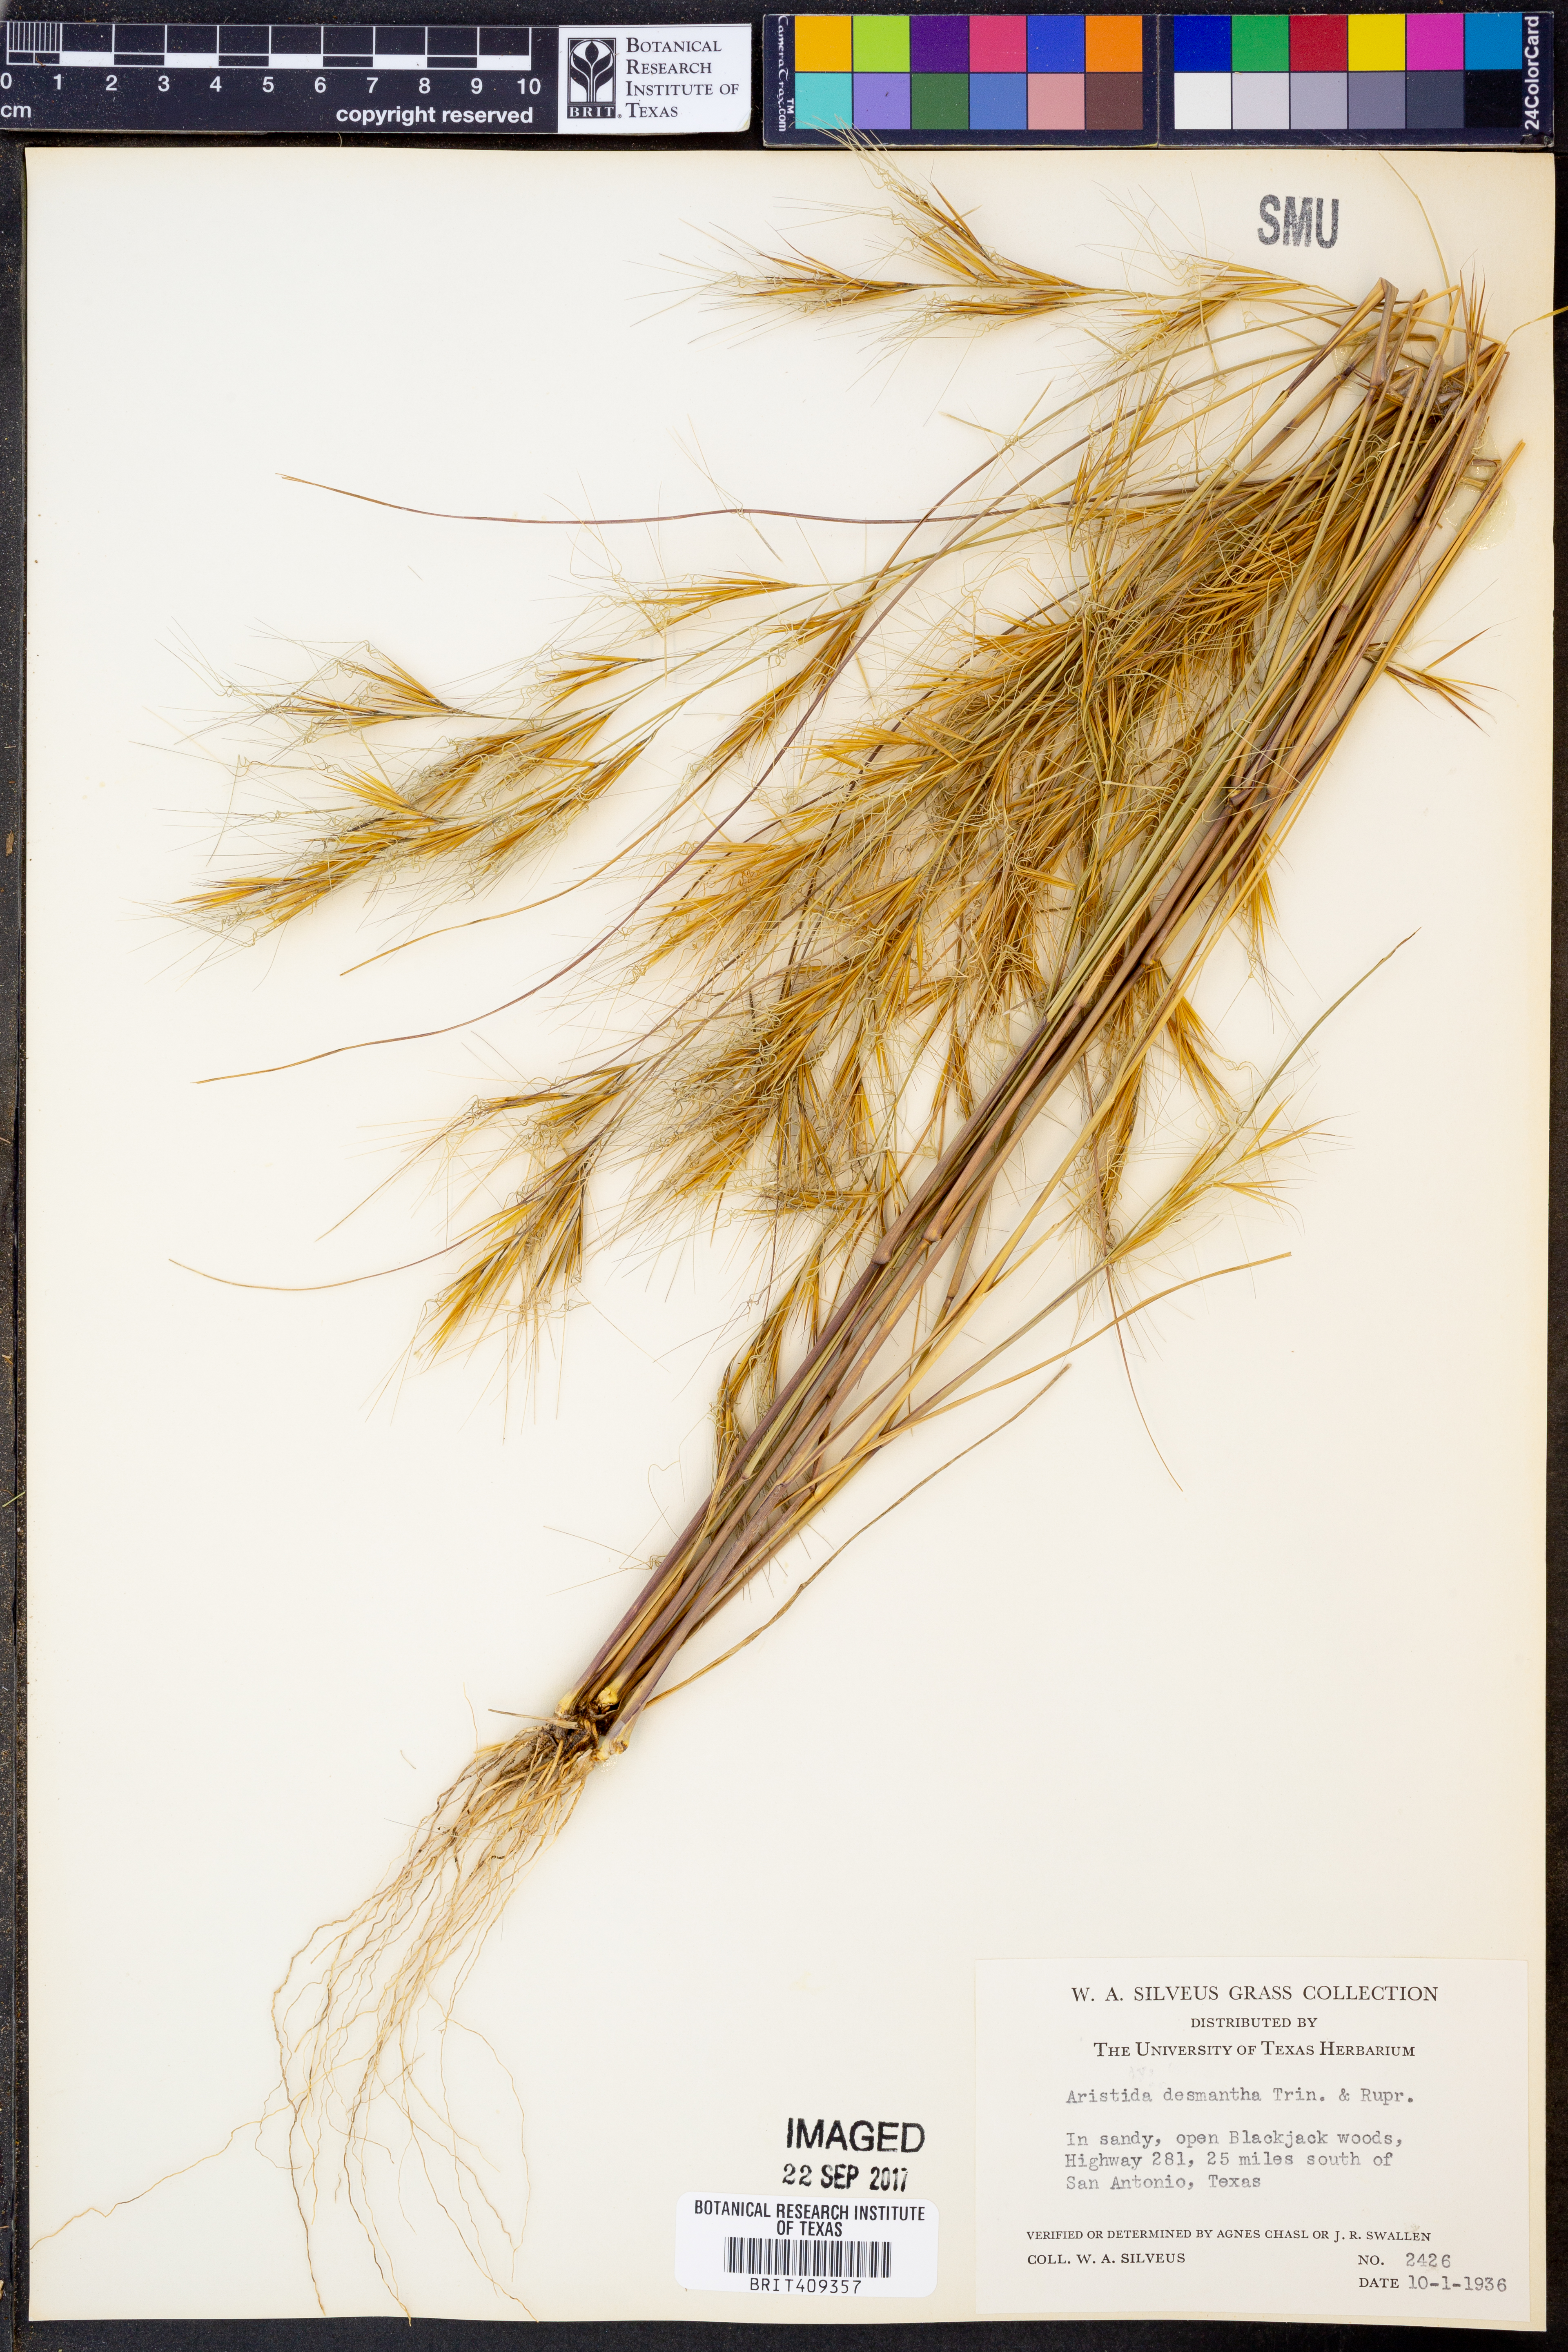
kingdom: Plantae
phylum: Tracheophyta
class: Liliopsida
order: Poales
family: Poaceae
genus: Aristida
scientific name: Aristida desmantha
